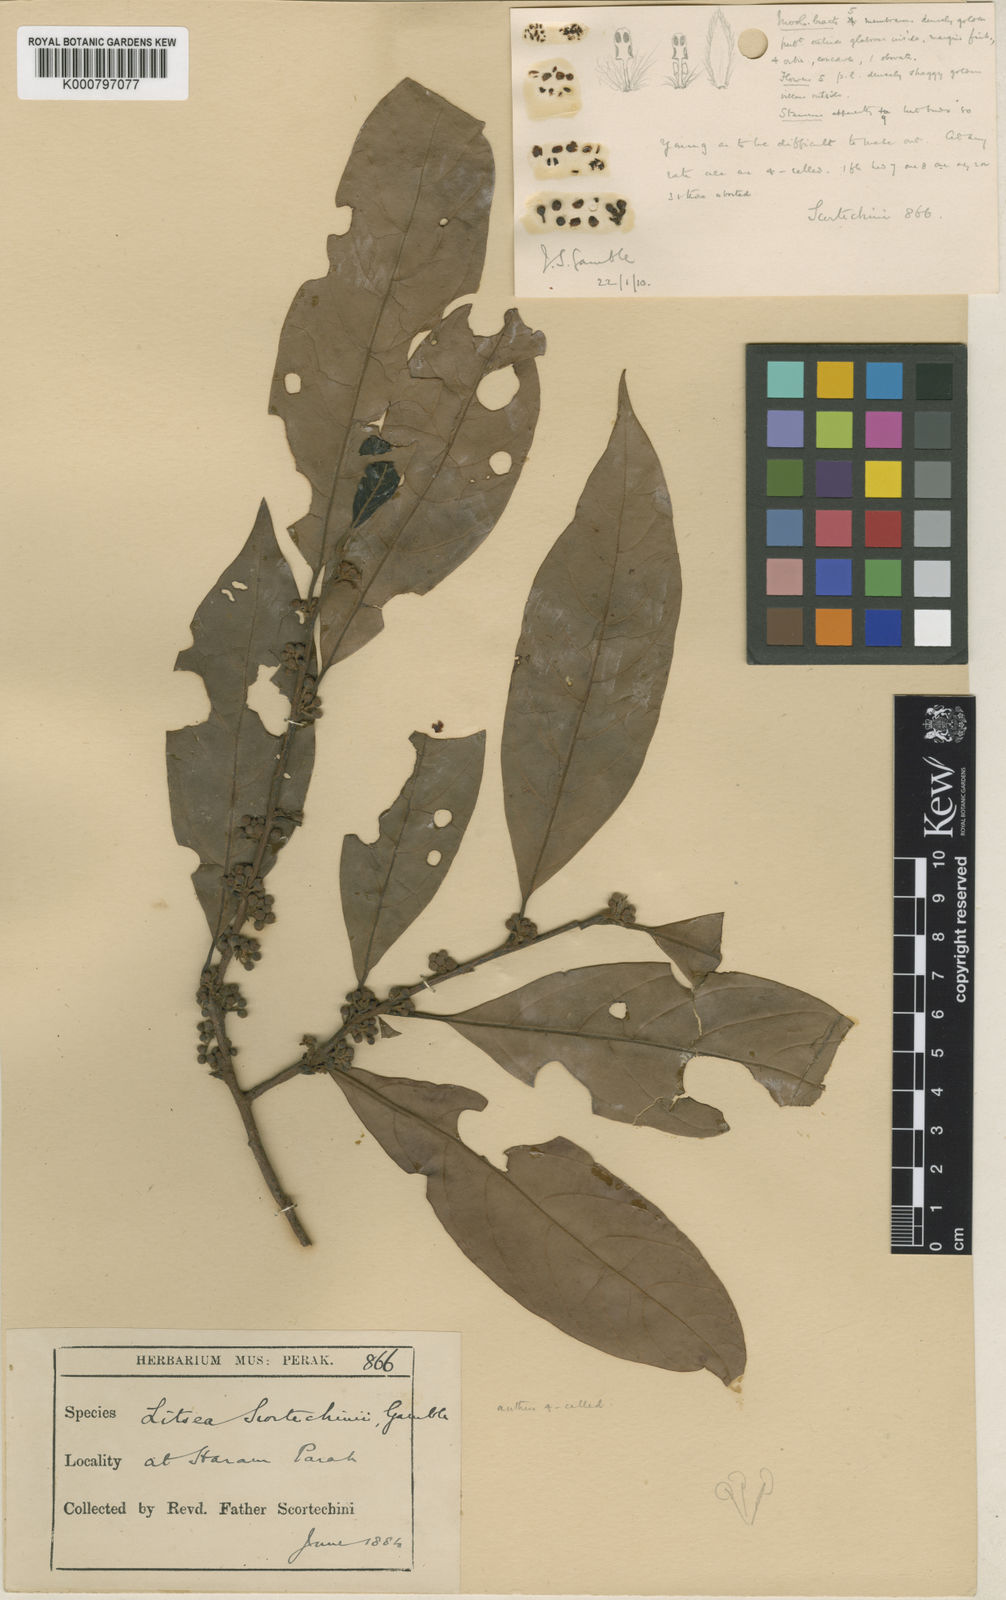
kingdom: Plantae
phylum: Tracheophyta
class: Magnoliopsida
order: Laurales
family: Lauraceae
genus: Litsea
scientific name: Litsea elliptica
